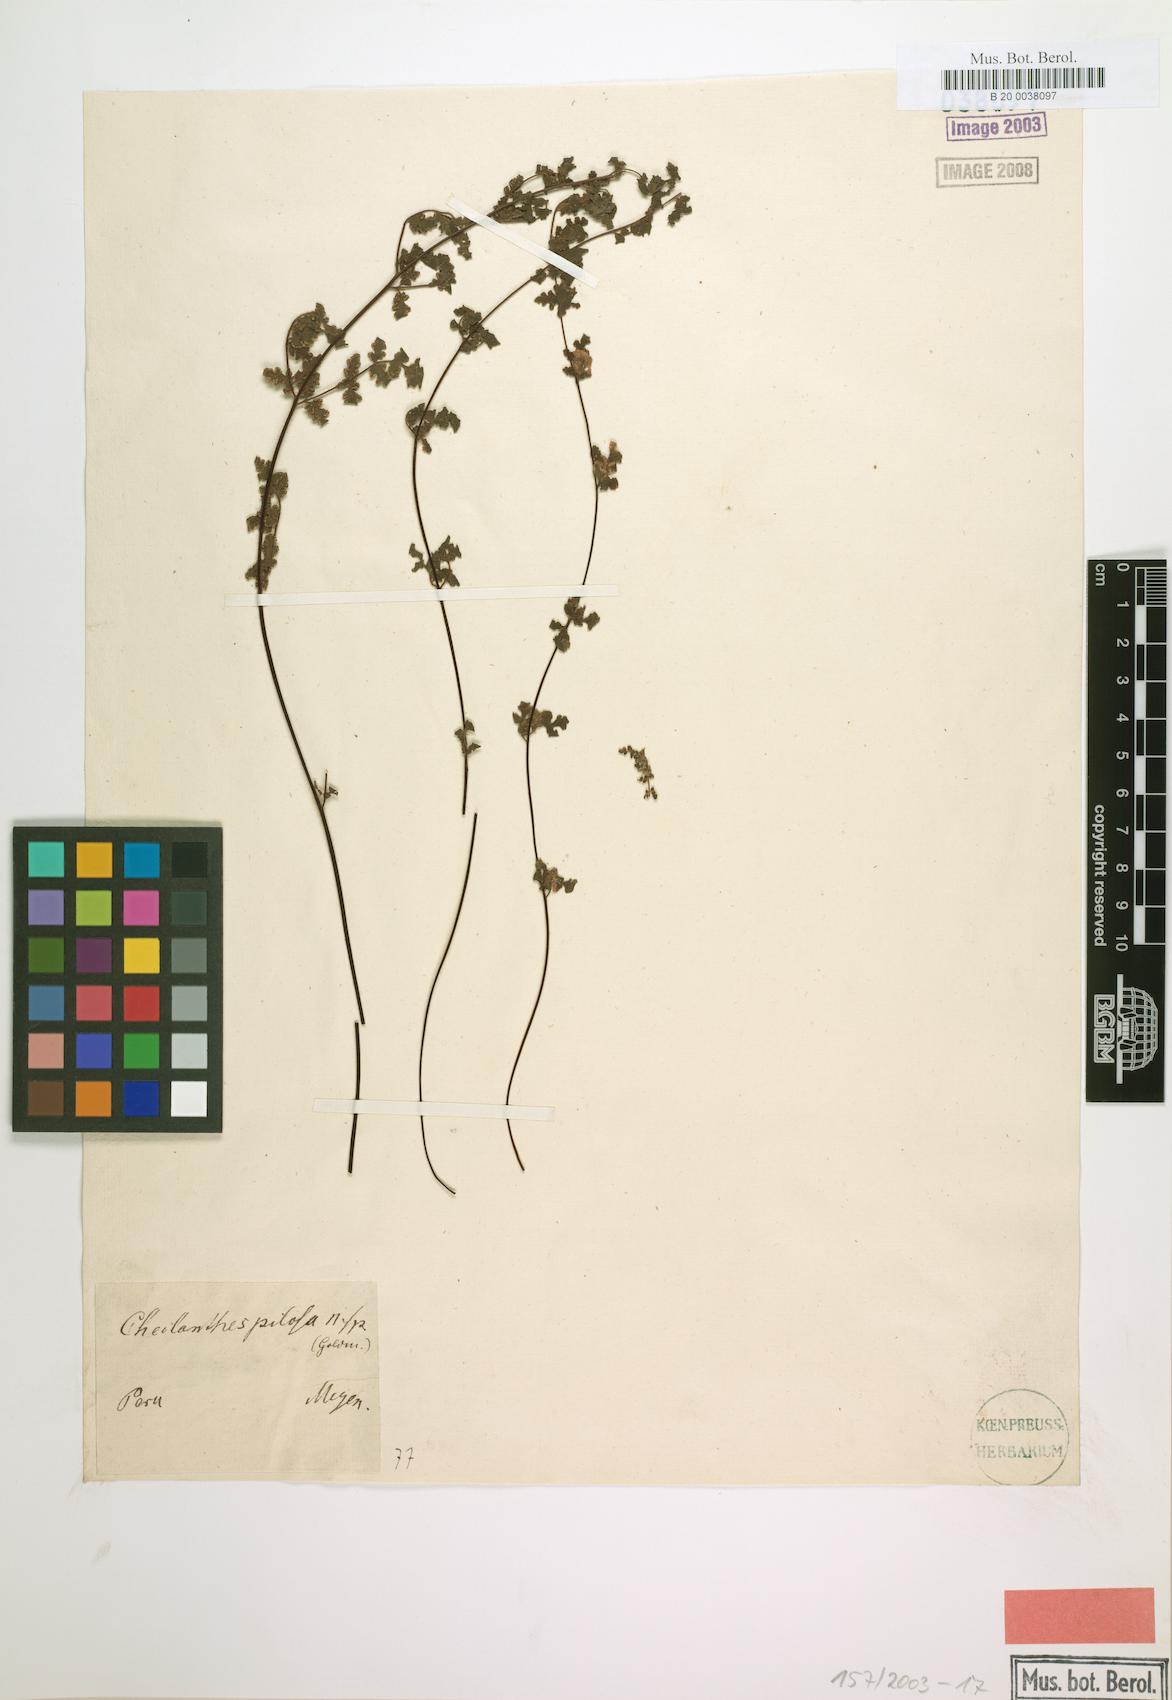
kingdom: Plantae
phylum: Tracheophyta
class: Polypodiopsida
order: Polypodiales
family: Pteridaceae
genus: Cheilanthes
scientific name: Cheilanthes pilosa
